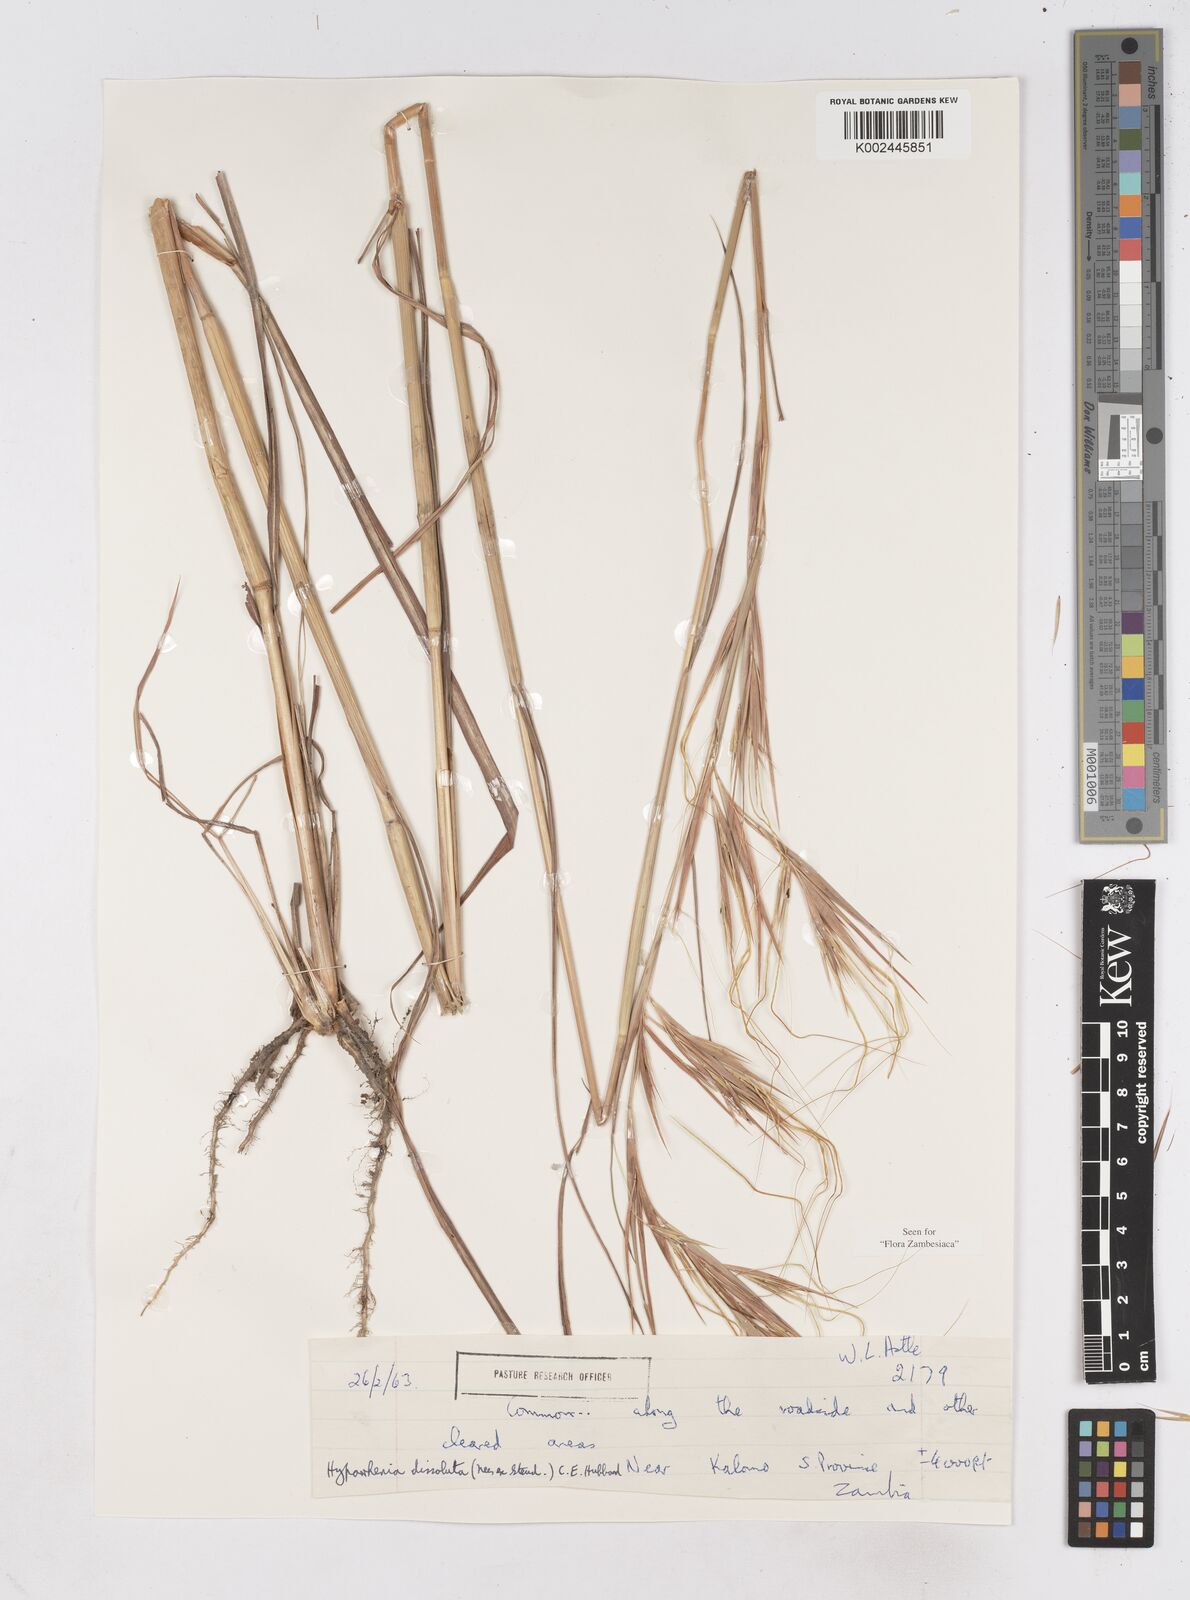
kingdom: Plantae
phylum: Tracheophyta
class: Liliopsida
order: Poales
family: Poaceae
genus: Hyperthelia
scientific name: Hyperthelia dissoluta
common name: Yellow thatching grass
